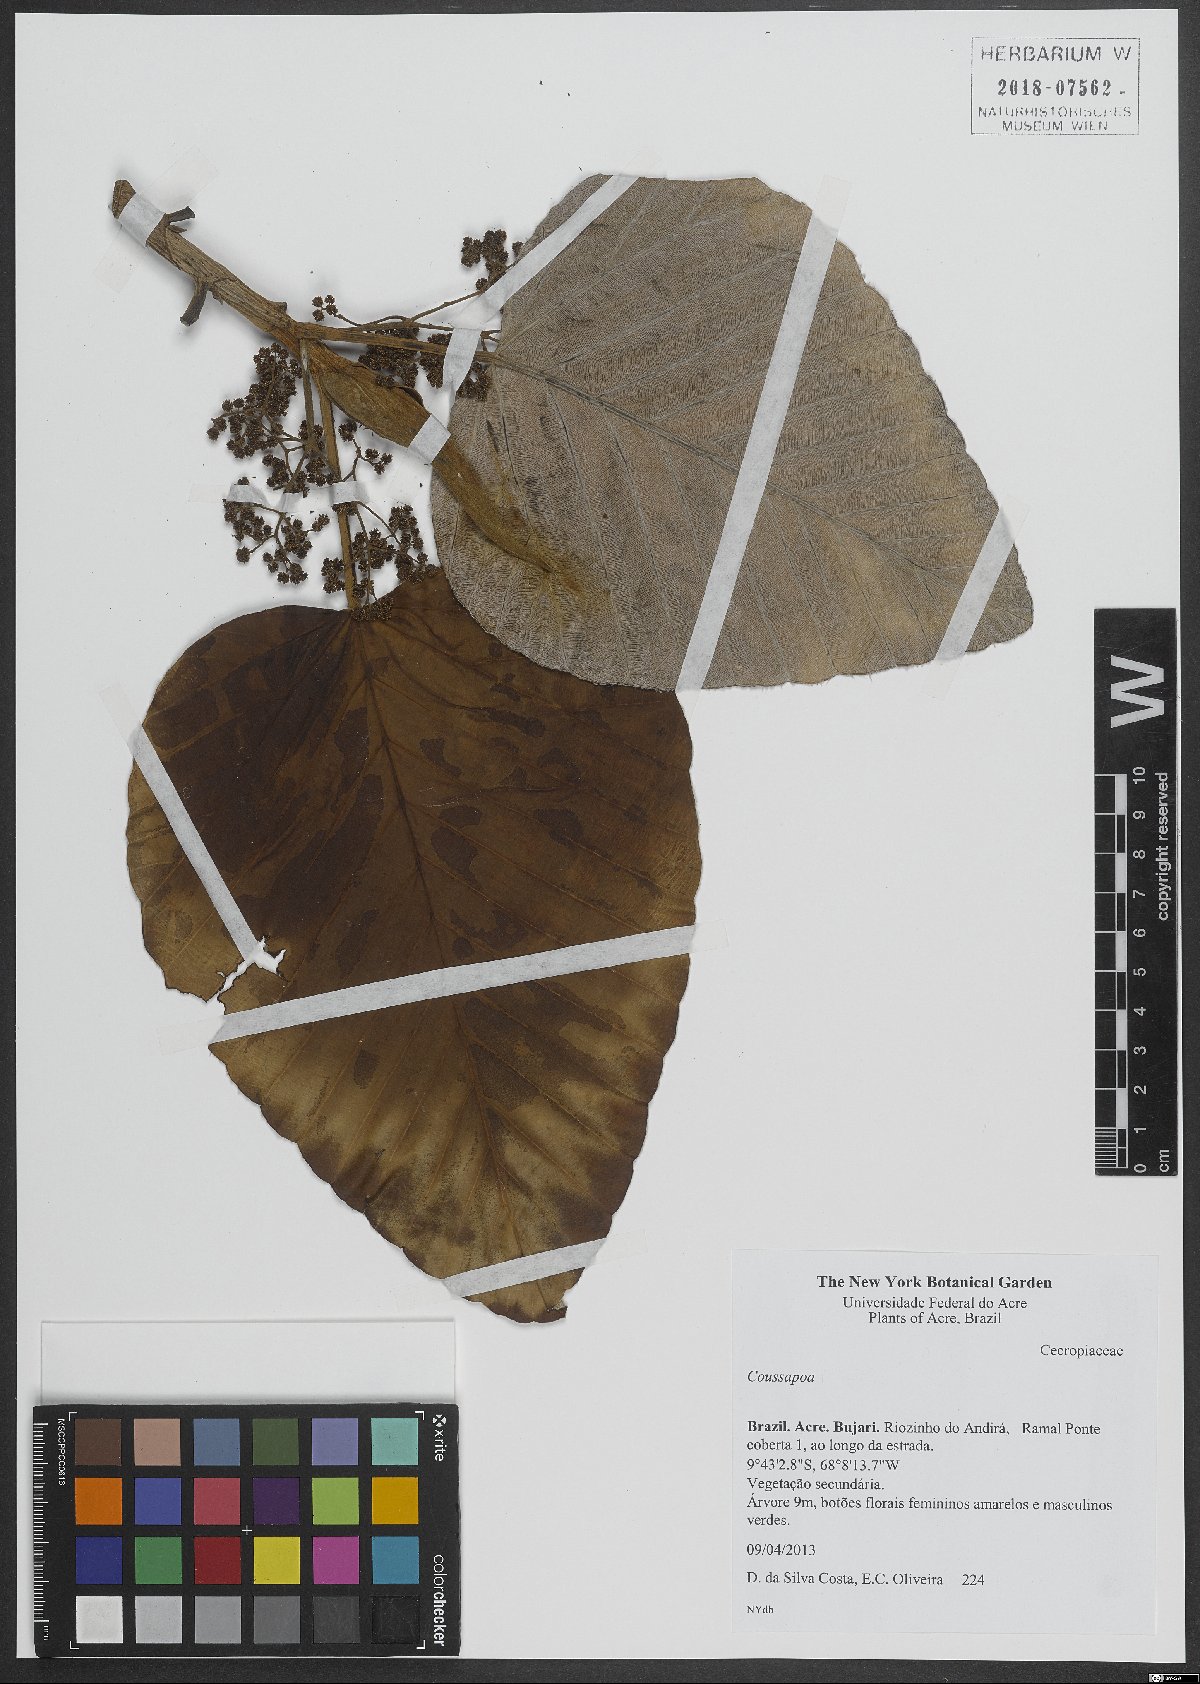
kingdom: Plantae
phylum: Tracheophyta
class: Magnoliopsida
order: Rosales
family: Urticaceae
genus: Coussapoa
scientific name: Coussapoa
